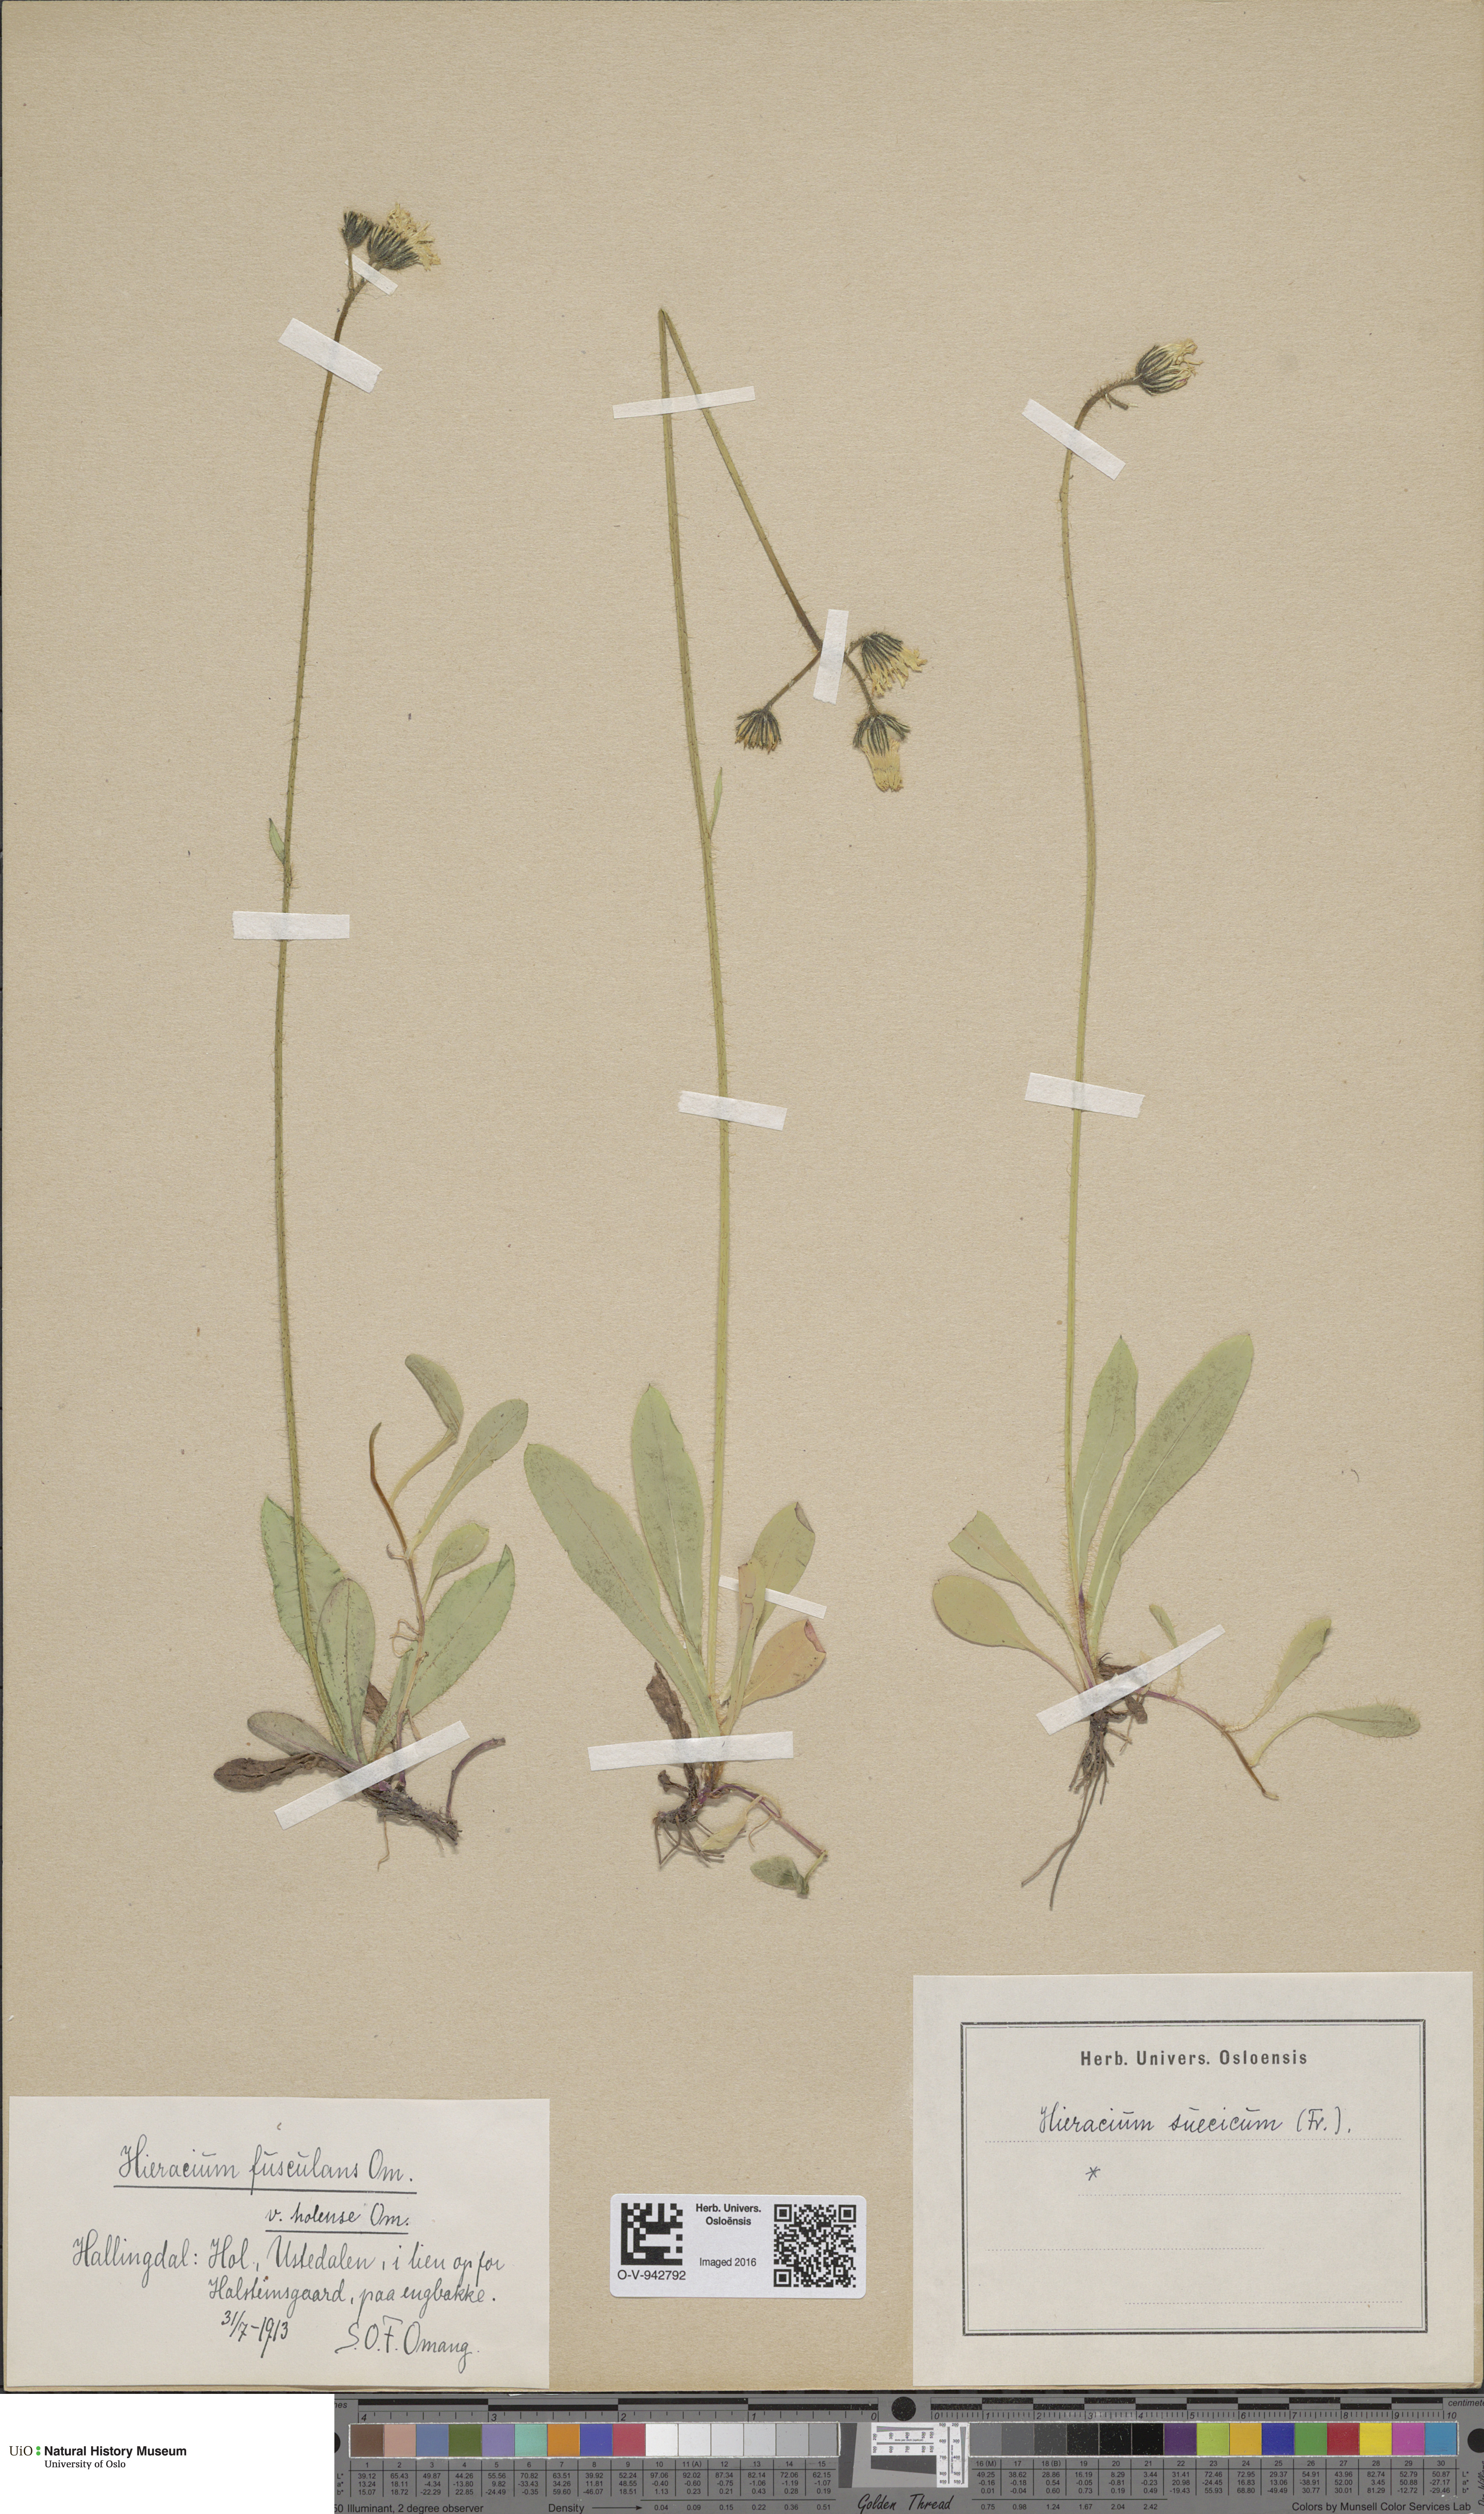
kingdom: Plantae
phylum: Tracheophyta
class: Magnoliopsida
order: Asterales
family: Asteraceae
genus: Pilosella
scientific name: Pilosella dubia
